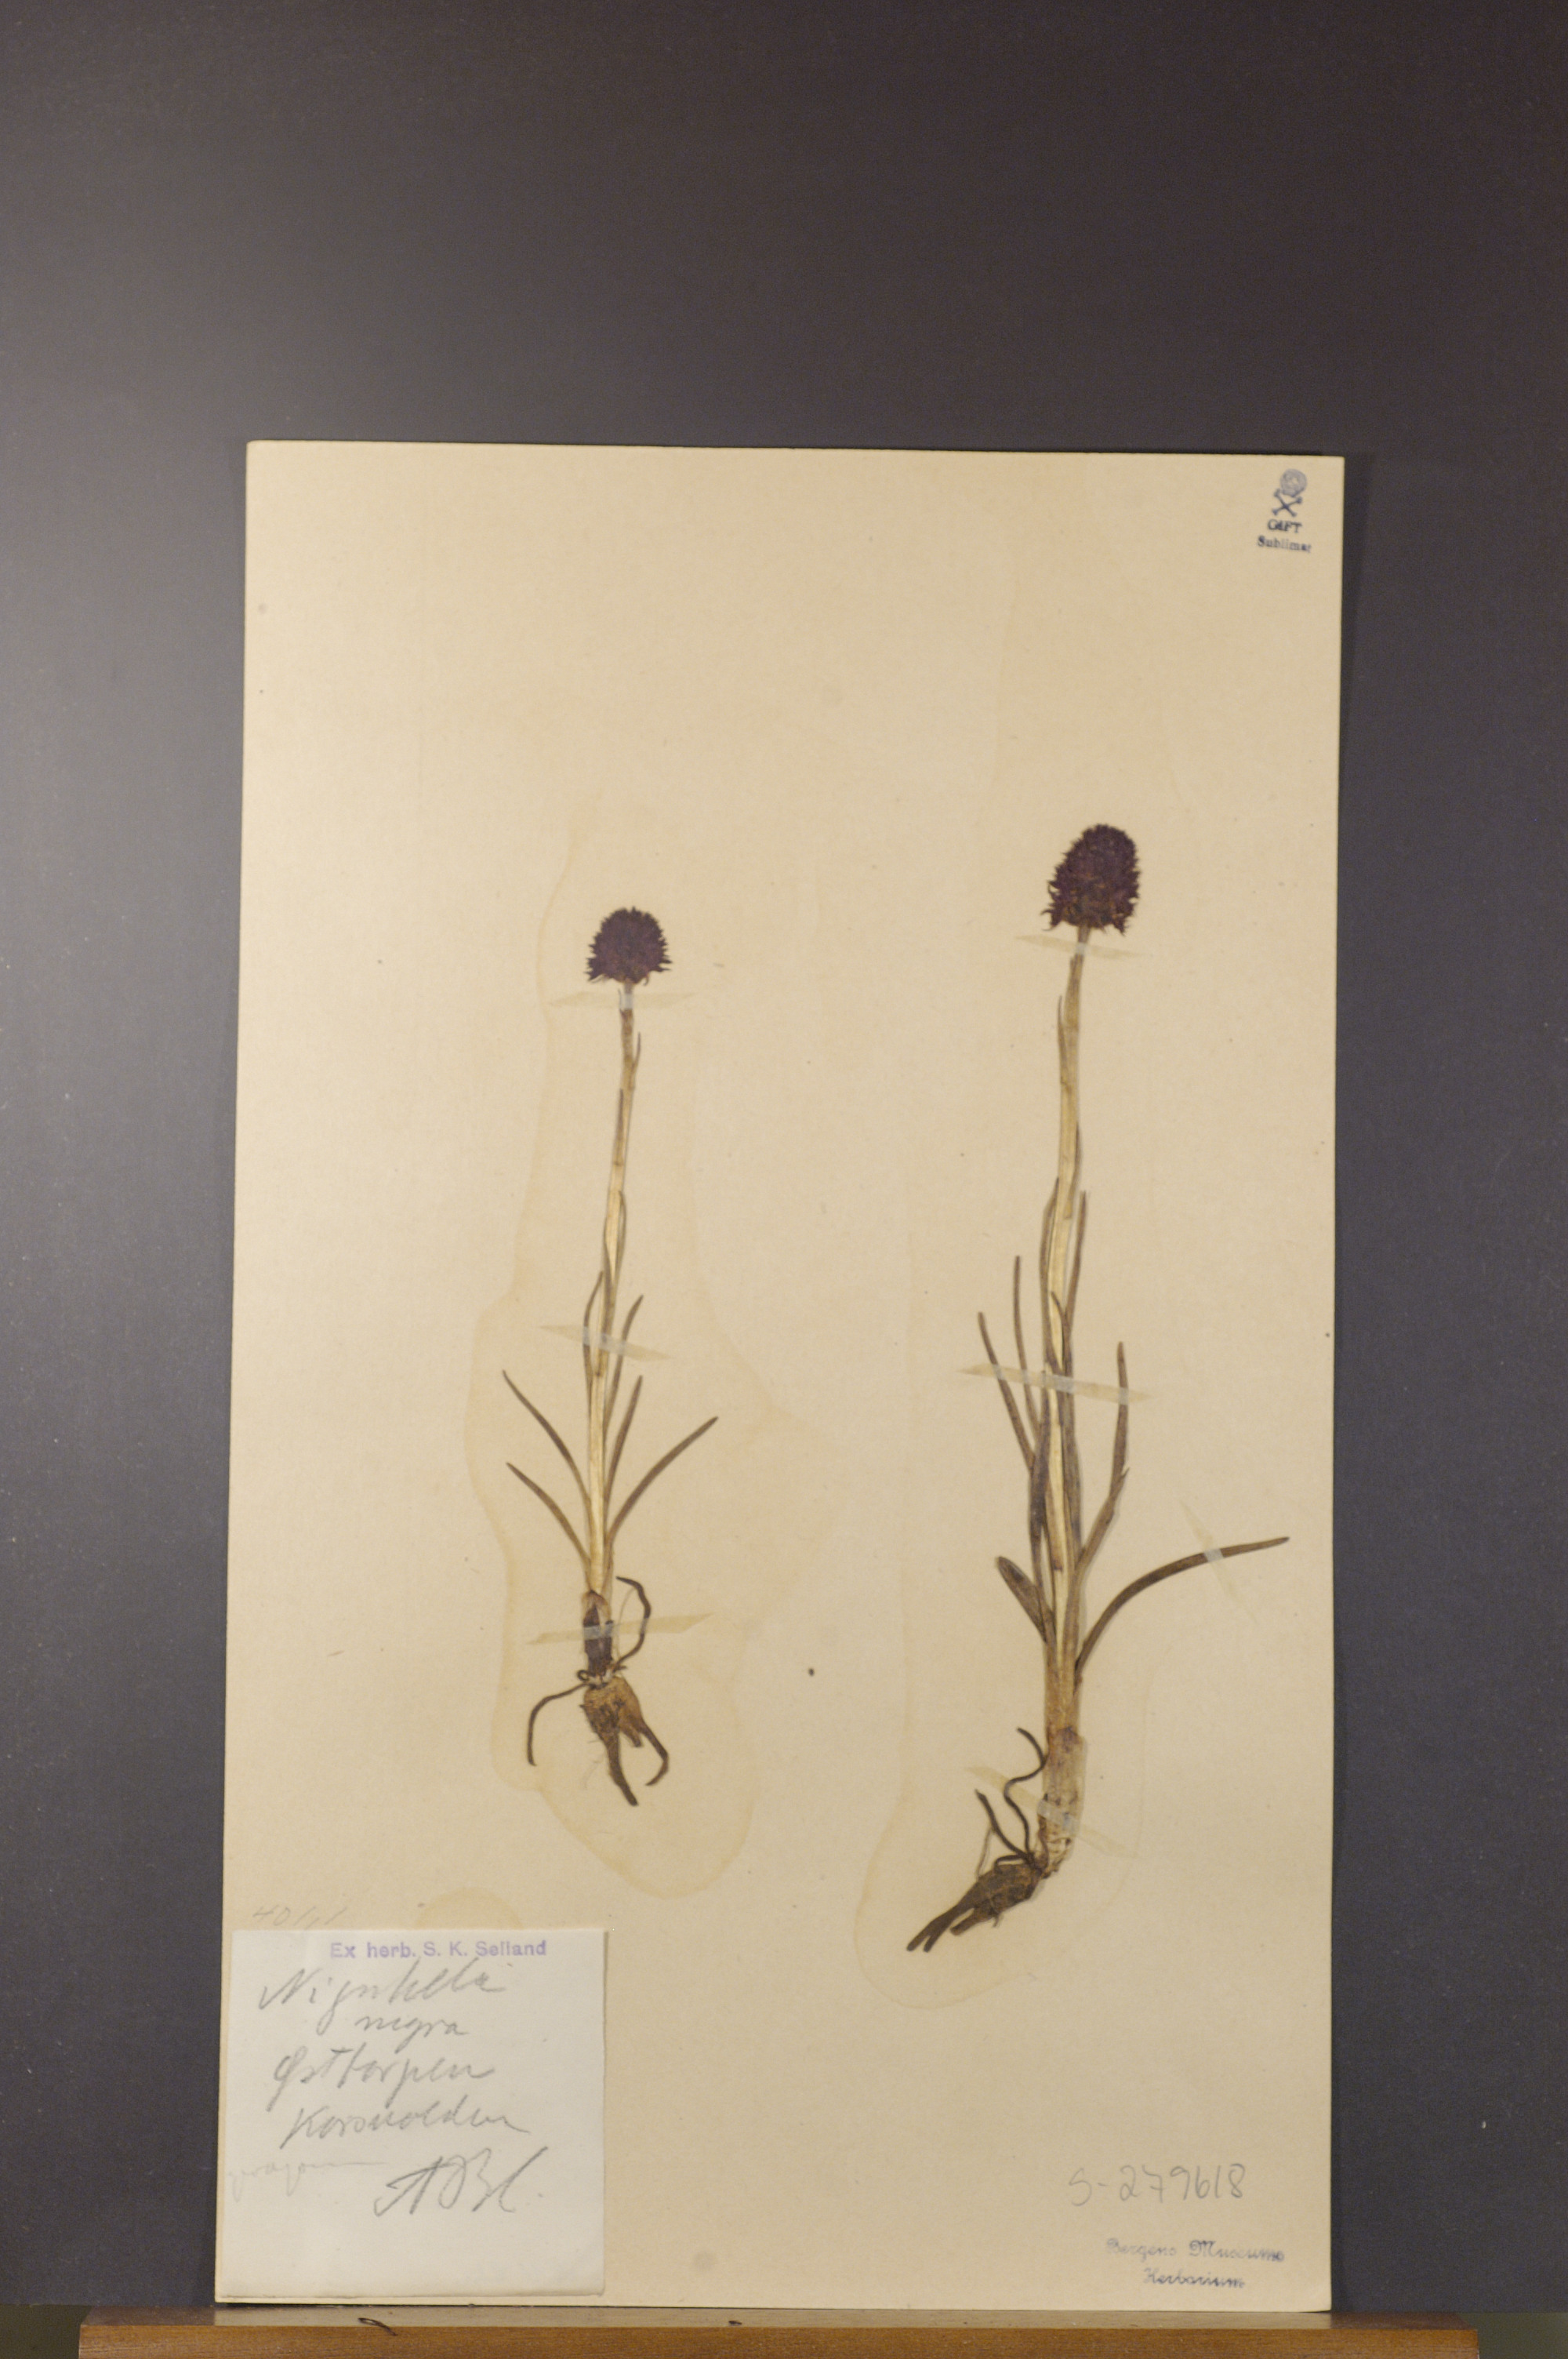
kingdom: Plantae
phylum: Tracheophyta
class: Liliopsida
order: Asparagales
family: Orchidaceae
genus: Gymnadenia
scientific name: Gymnadenia nigra
